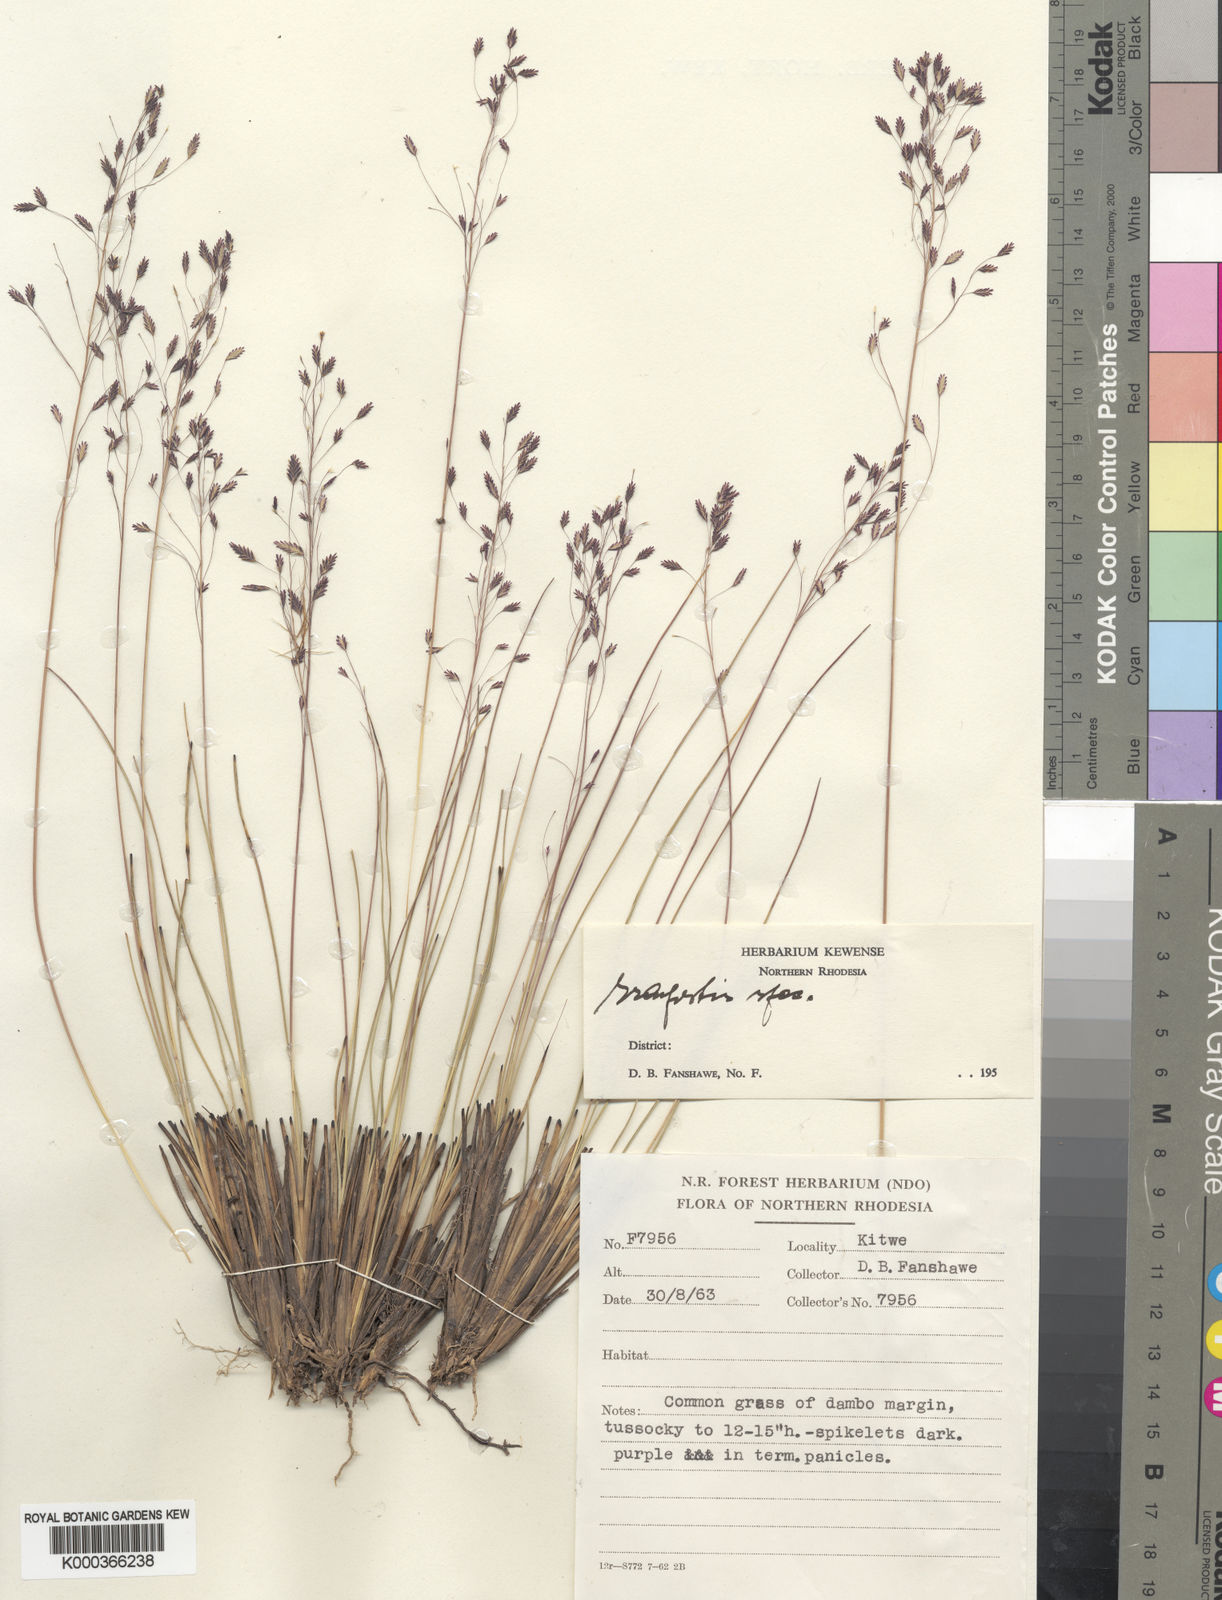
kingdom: Plantae
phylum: Tracheophyta
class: Liliopsida
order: Poales
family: Poaceae
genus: Eragrostis
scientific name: Eragrostis fimbrillata
